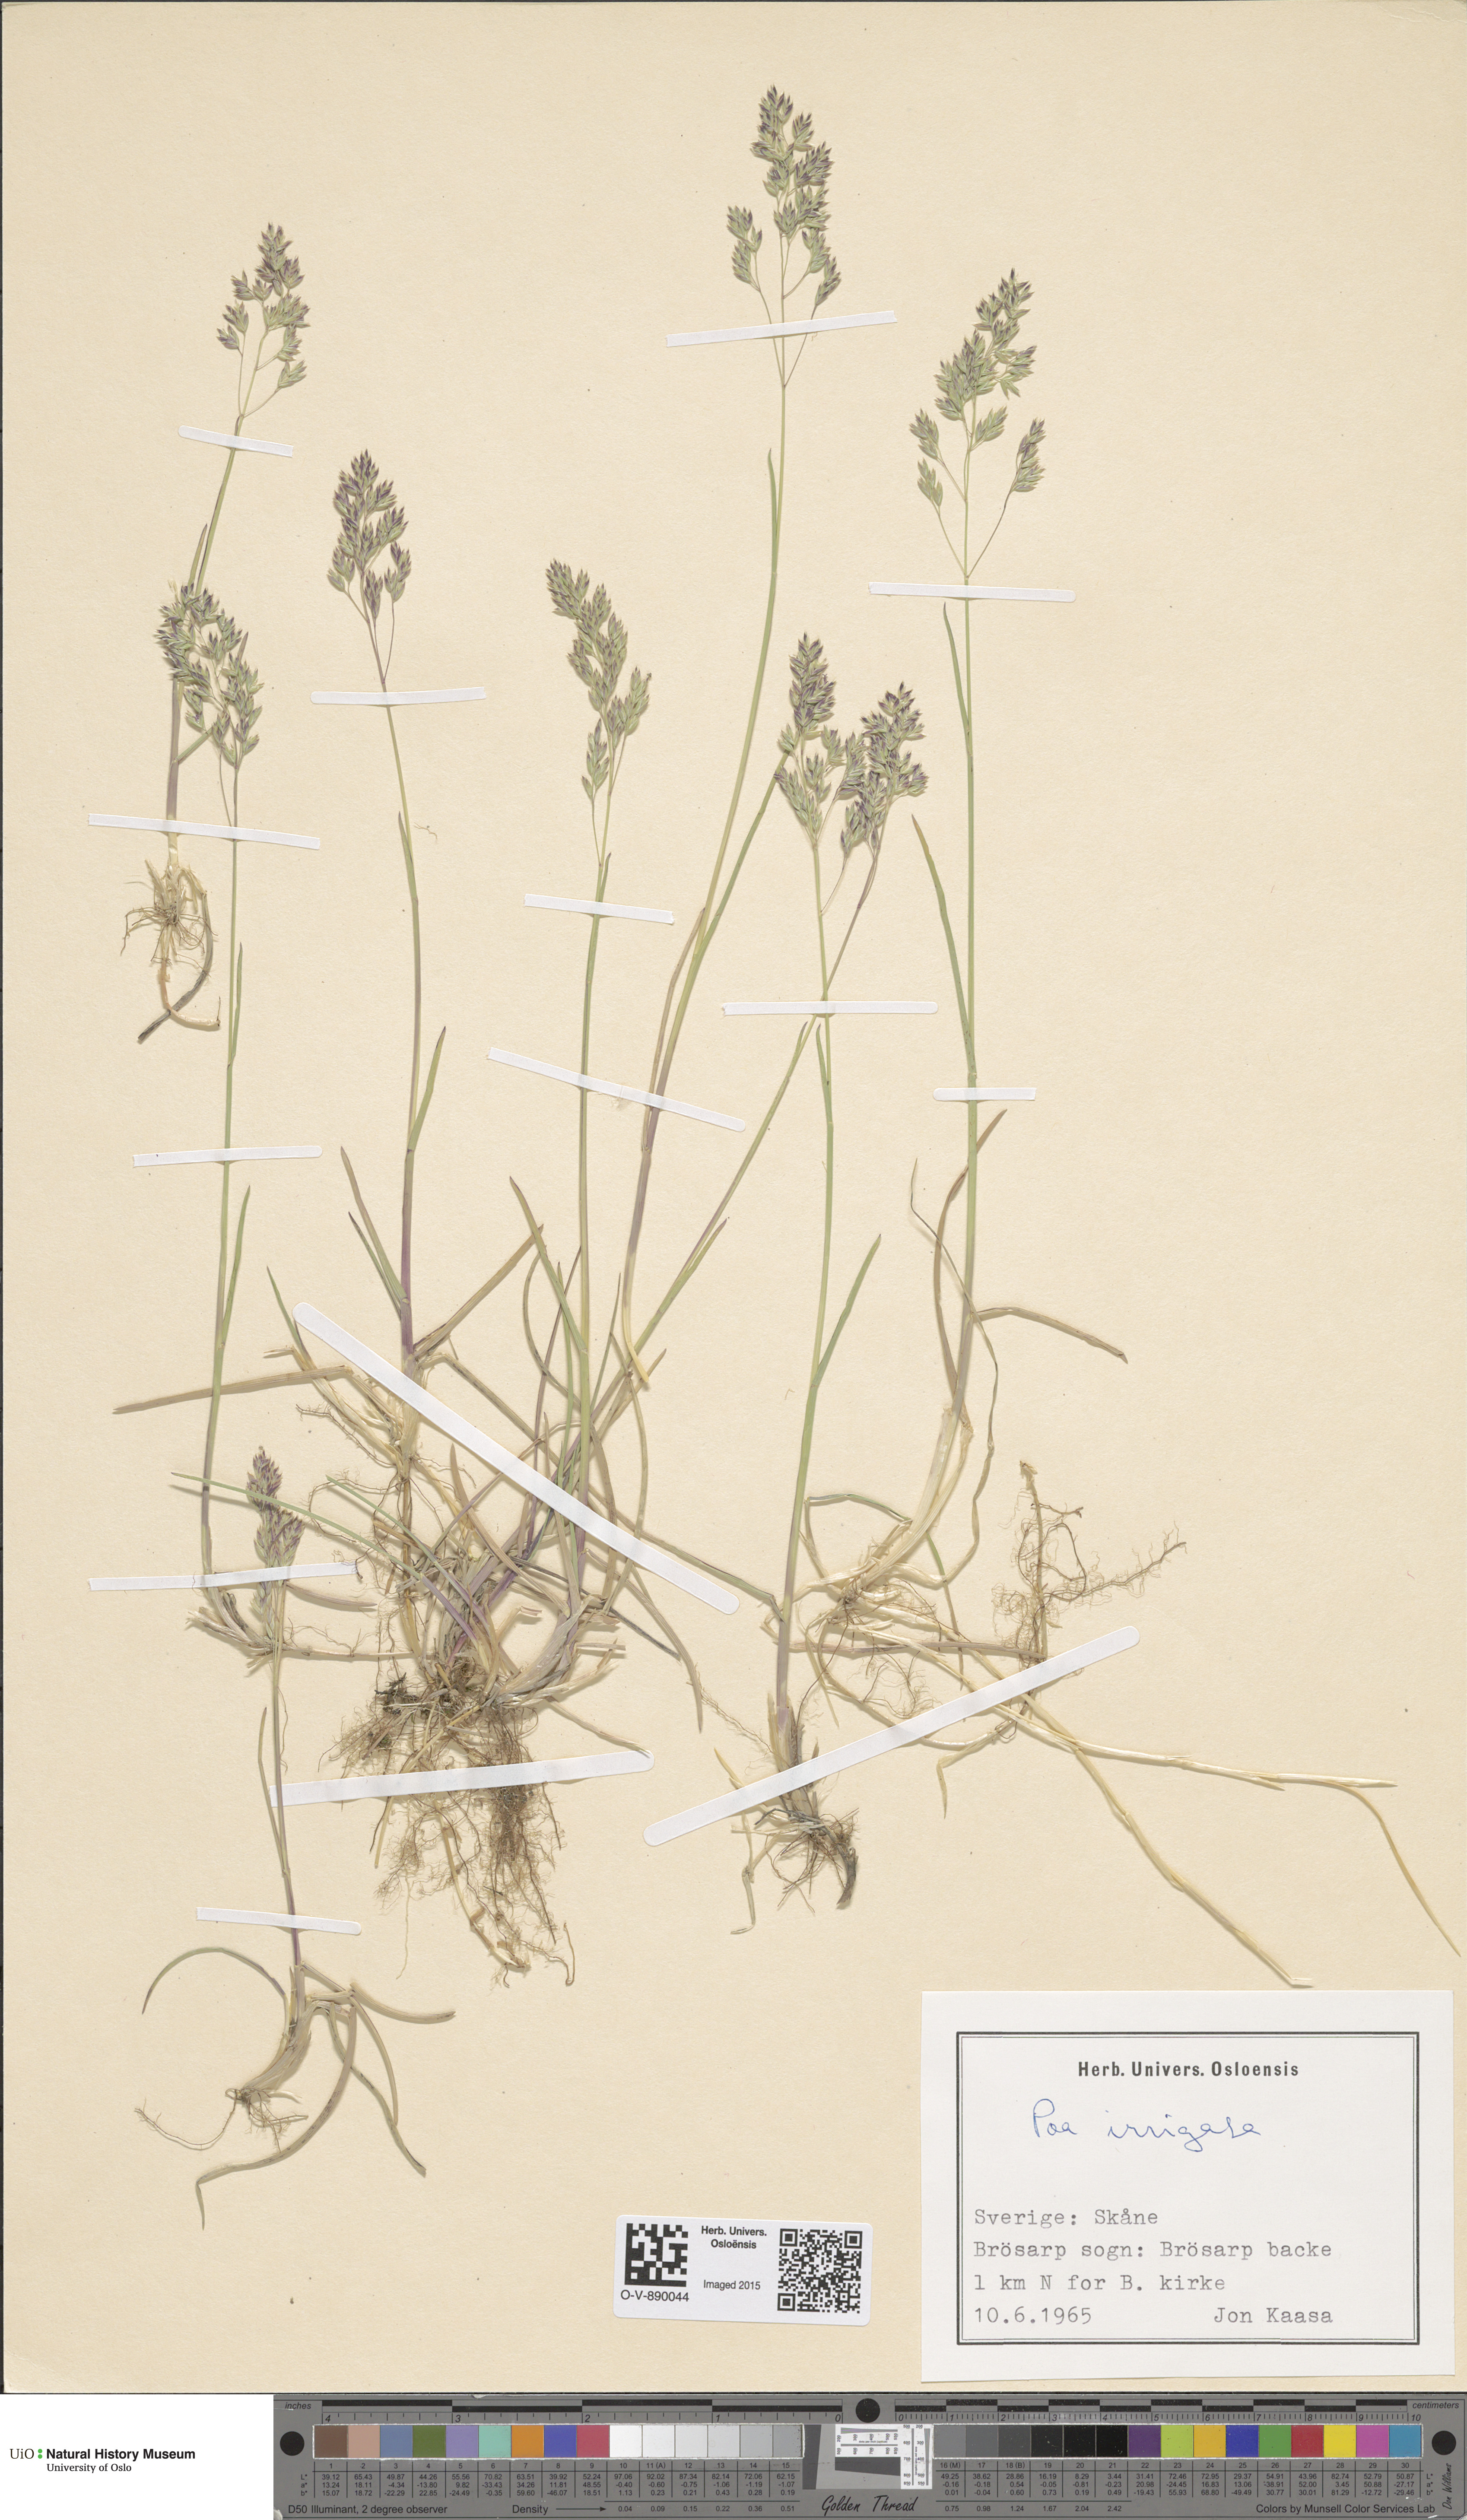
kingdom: Plantae
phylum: Tracheophyta
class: Liliopsida
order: Poales
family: Poaceae
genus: Poa
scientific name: Poa humilis
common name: Spreading meadow-grass
